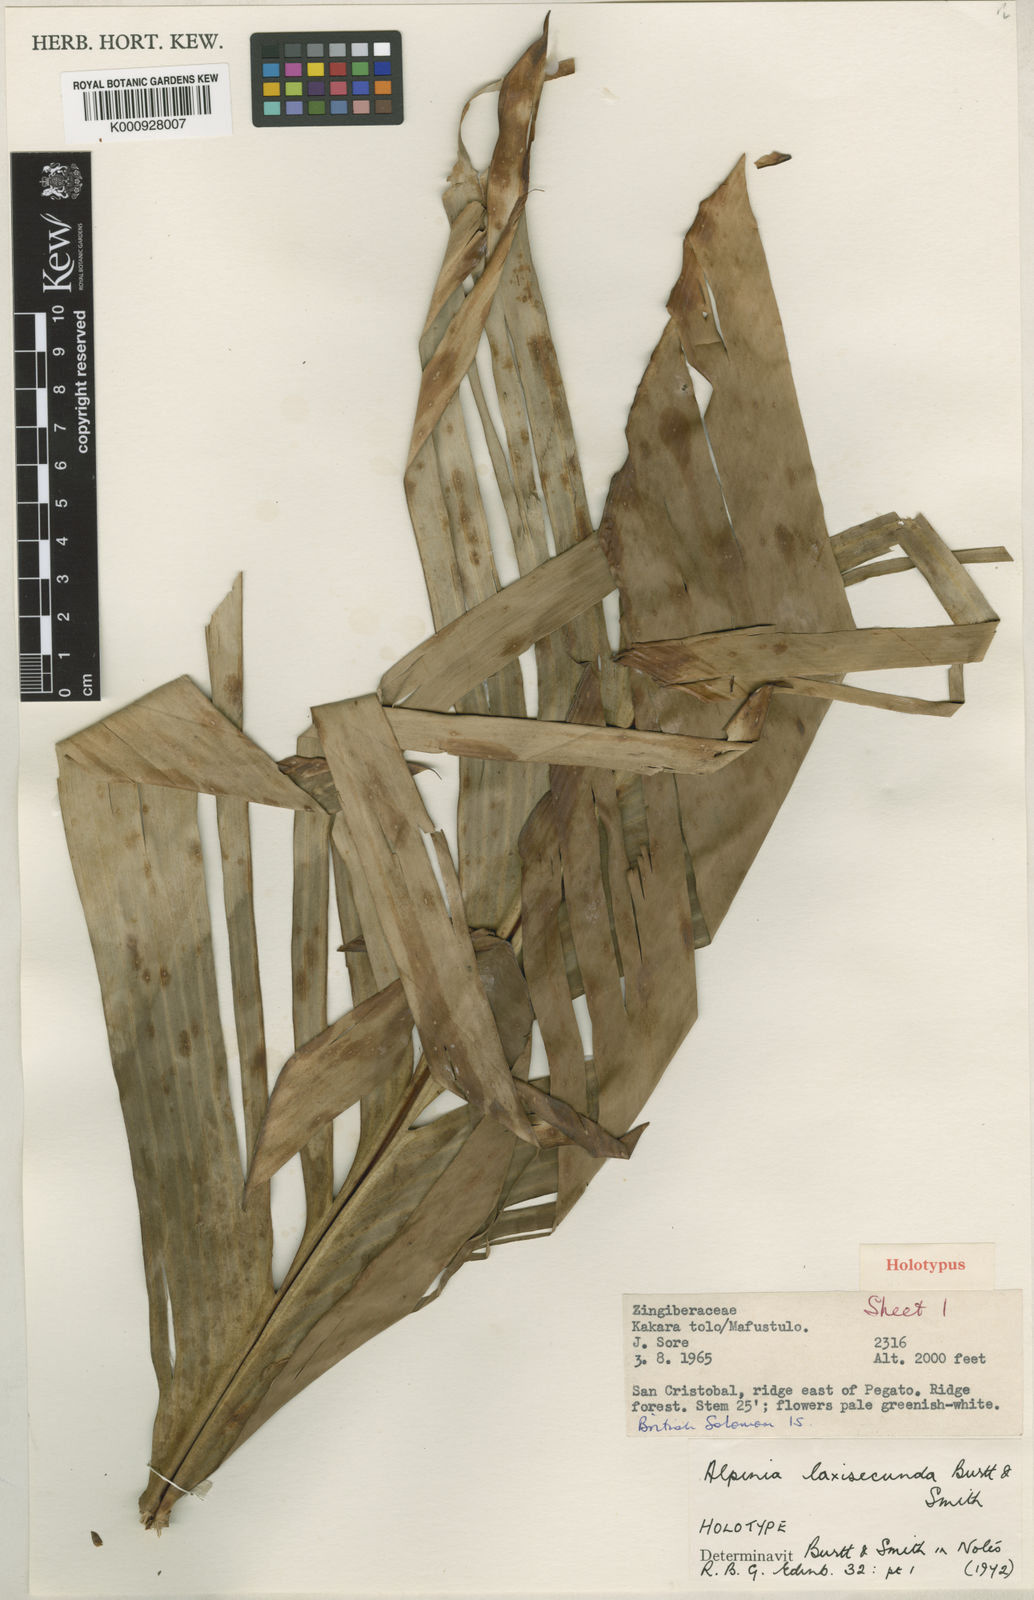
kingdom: Plantae
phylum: Tracheophyta
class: Liliopsida
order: Zingiberales
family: Zingiberaceae
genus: Alpinia
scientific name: Alpinia laxisecunda
